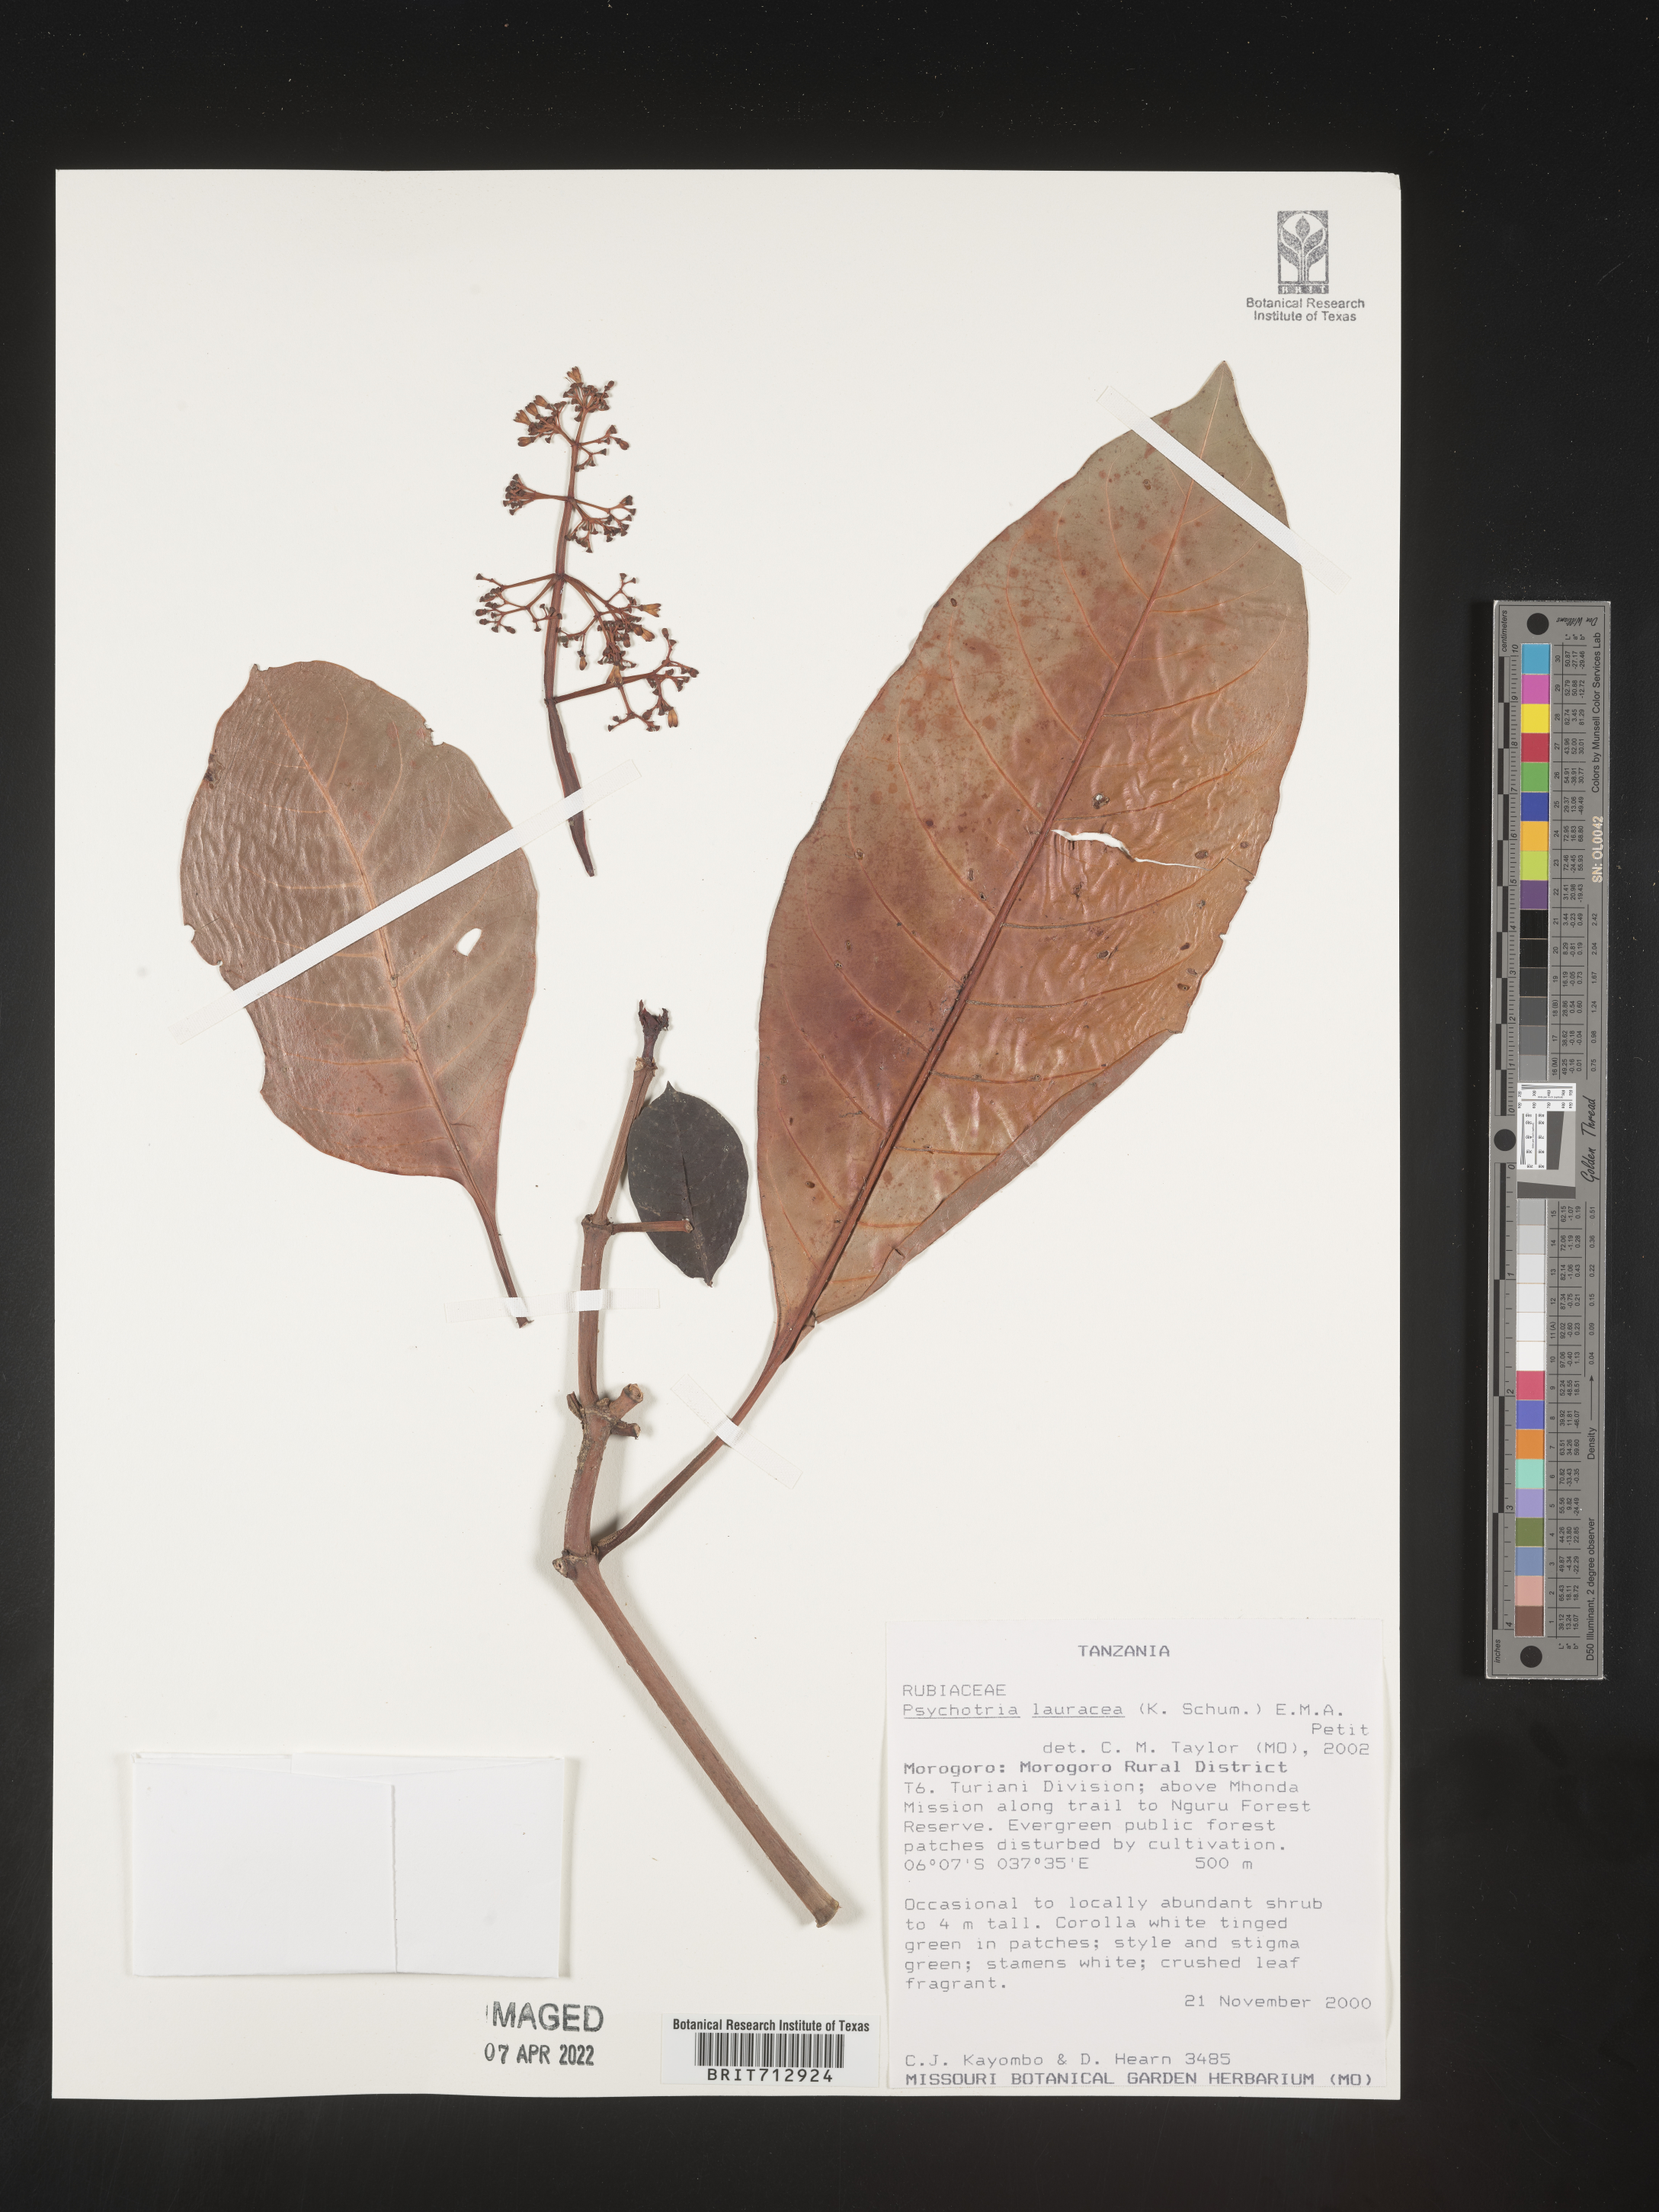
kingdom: Plantae
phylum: Tracheophyta
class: Magnoliopsida
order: Gentianales
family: Rubiaceae
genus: Psychotria
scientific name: Psychotria lauracea
